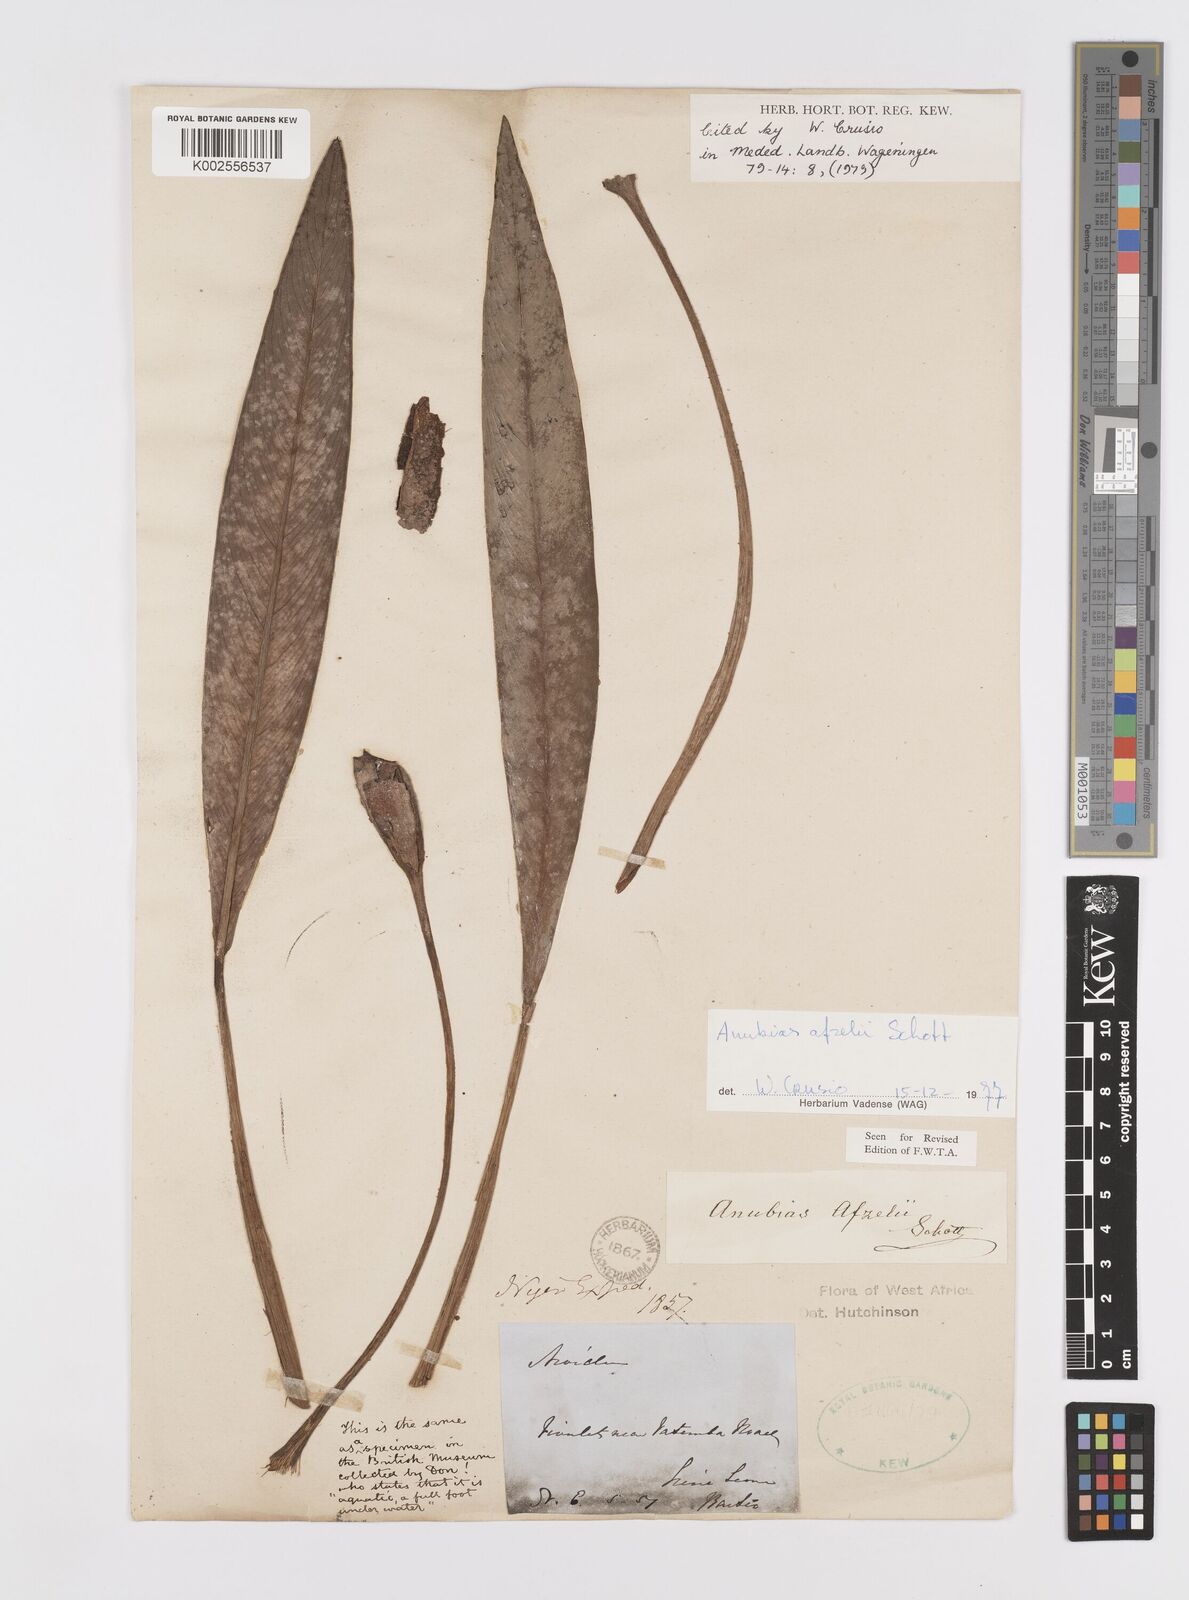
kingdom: Plantae
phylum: Tracheophyta
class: Liliopsida
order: Alismatales
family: Araceae
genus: Anubias
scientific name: Anubias afzelii
